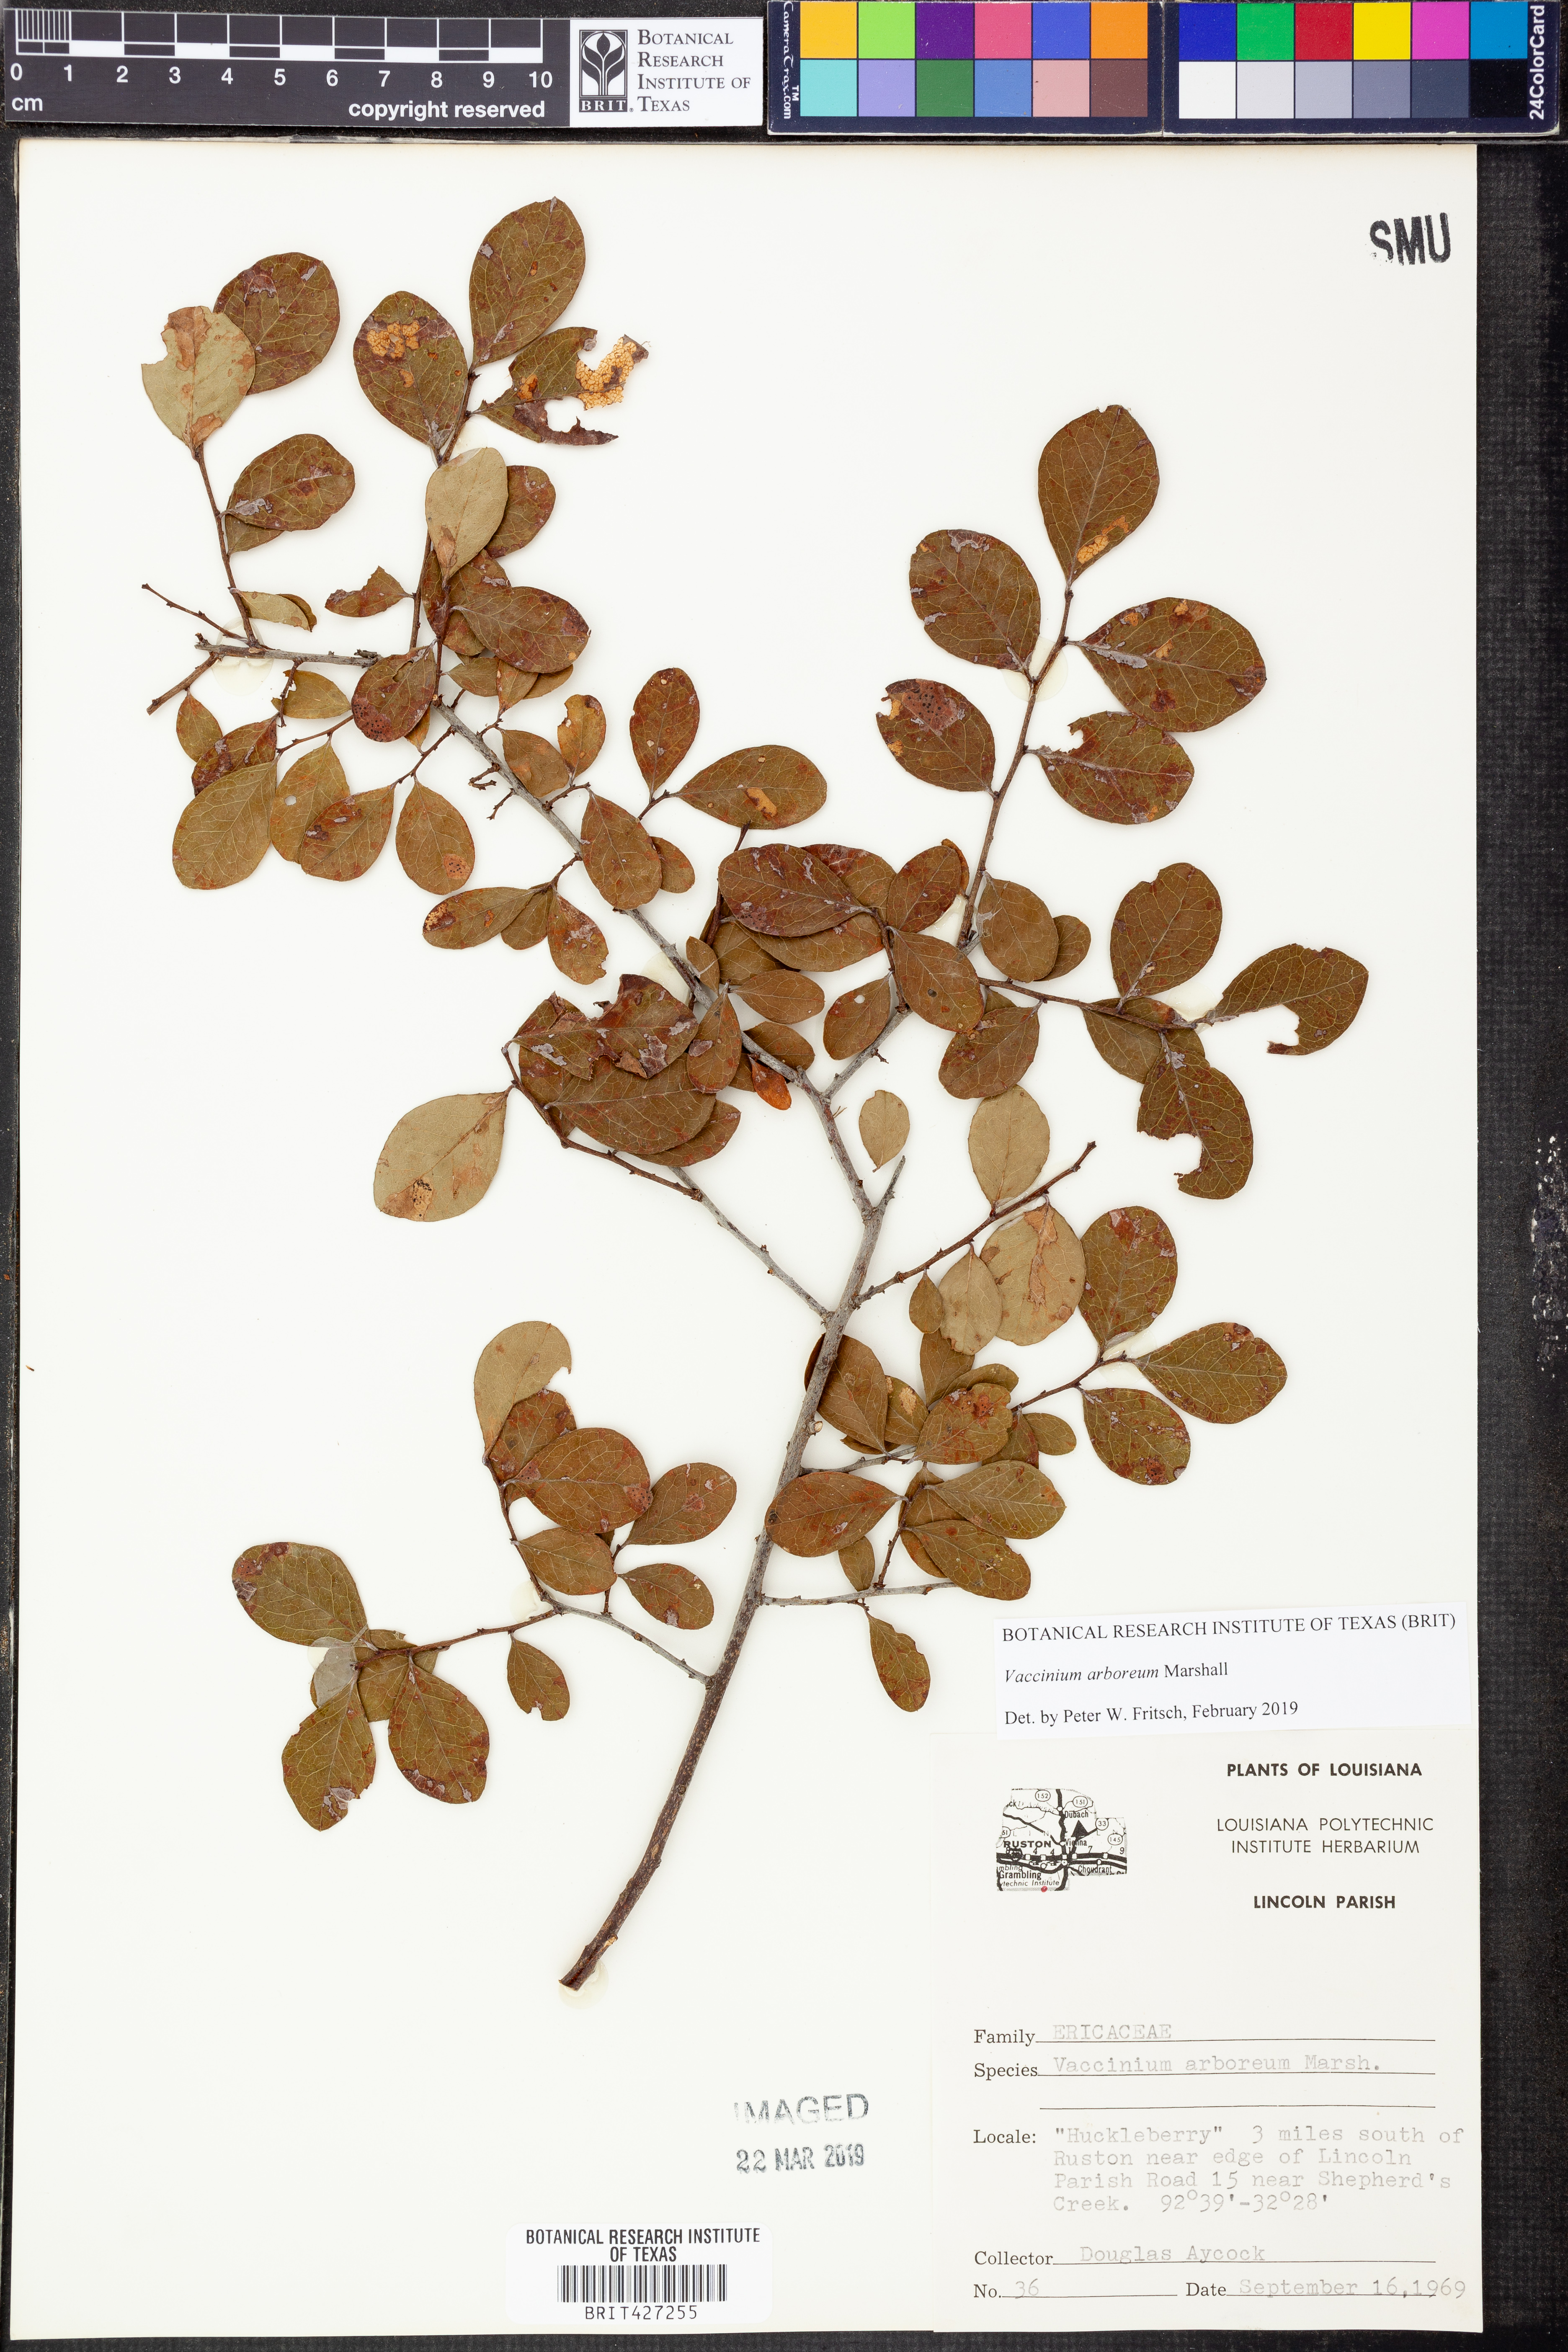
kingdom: Plantae
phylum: Tracheophyta
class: Magnoliopsida
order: Ericales
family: Ericaceae
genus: Vaccinium
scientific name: Vaccinium arboreum
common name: Farkleberry
